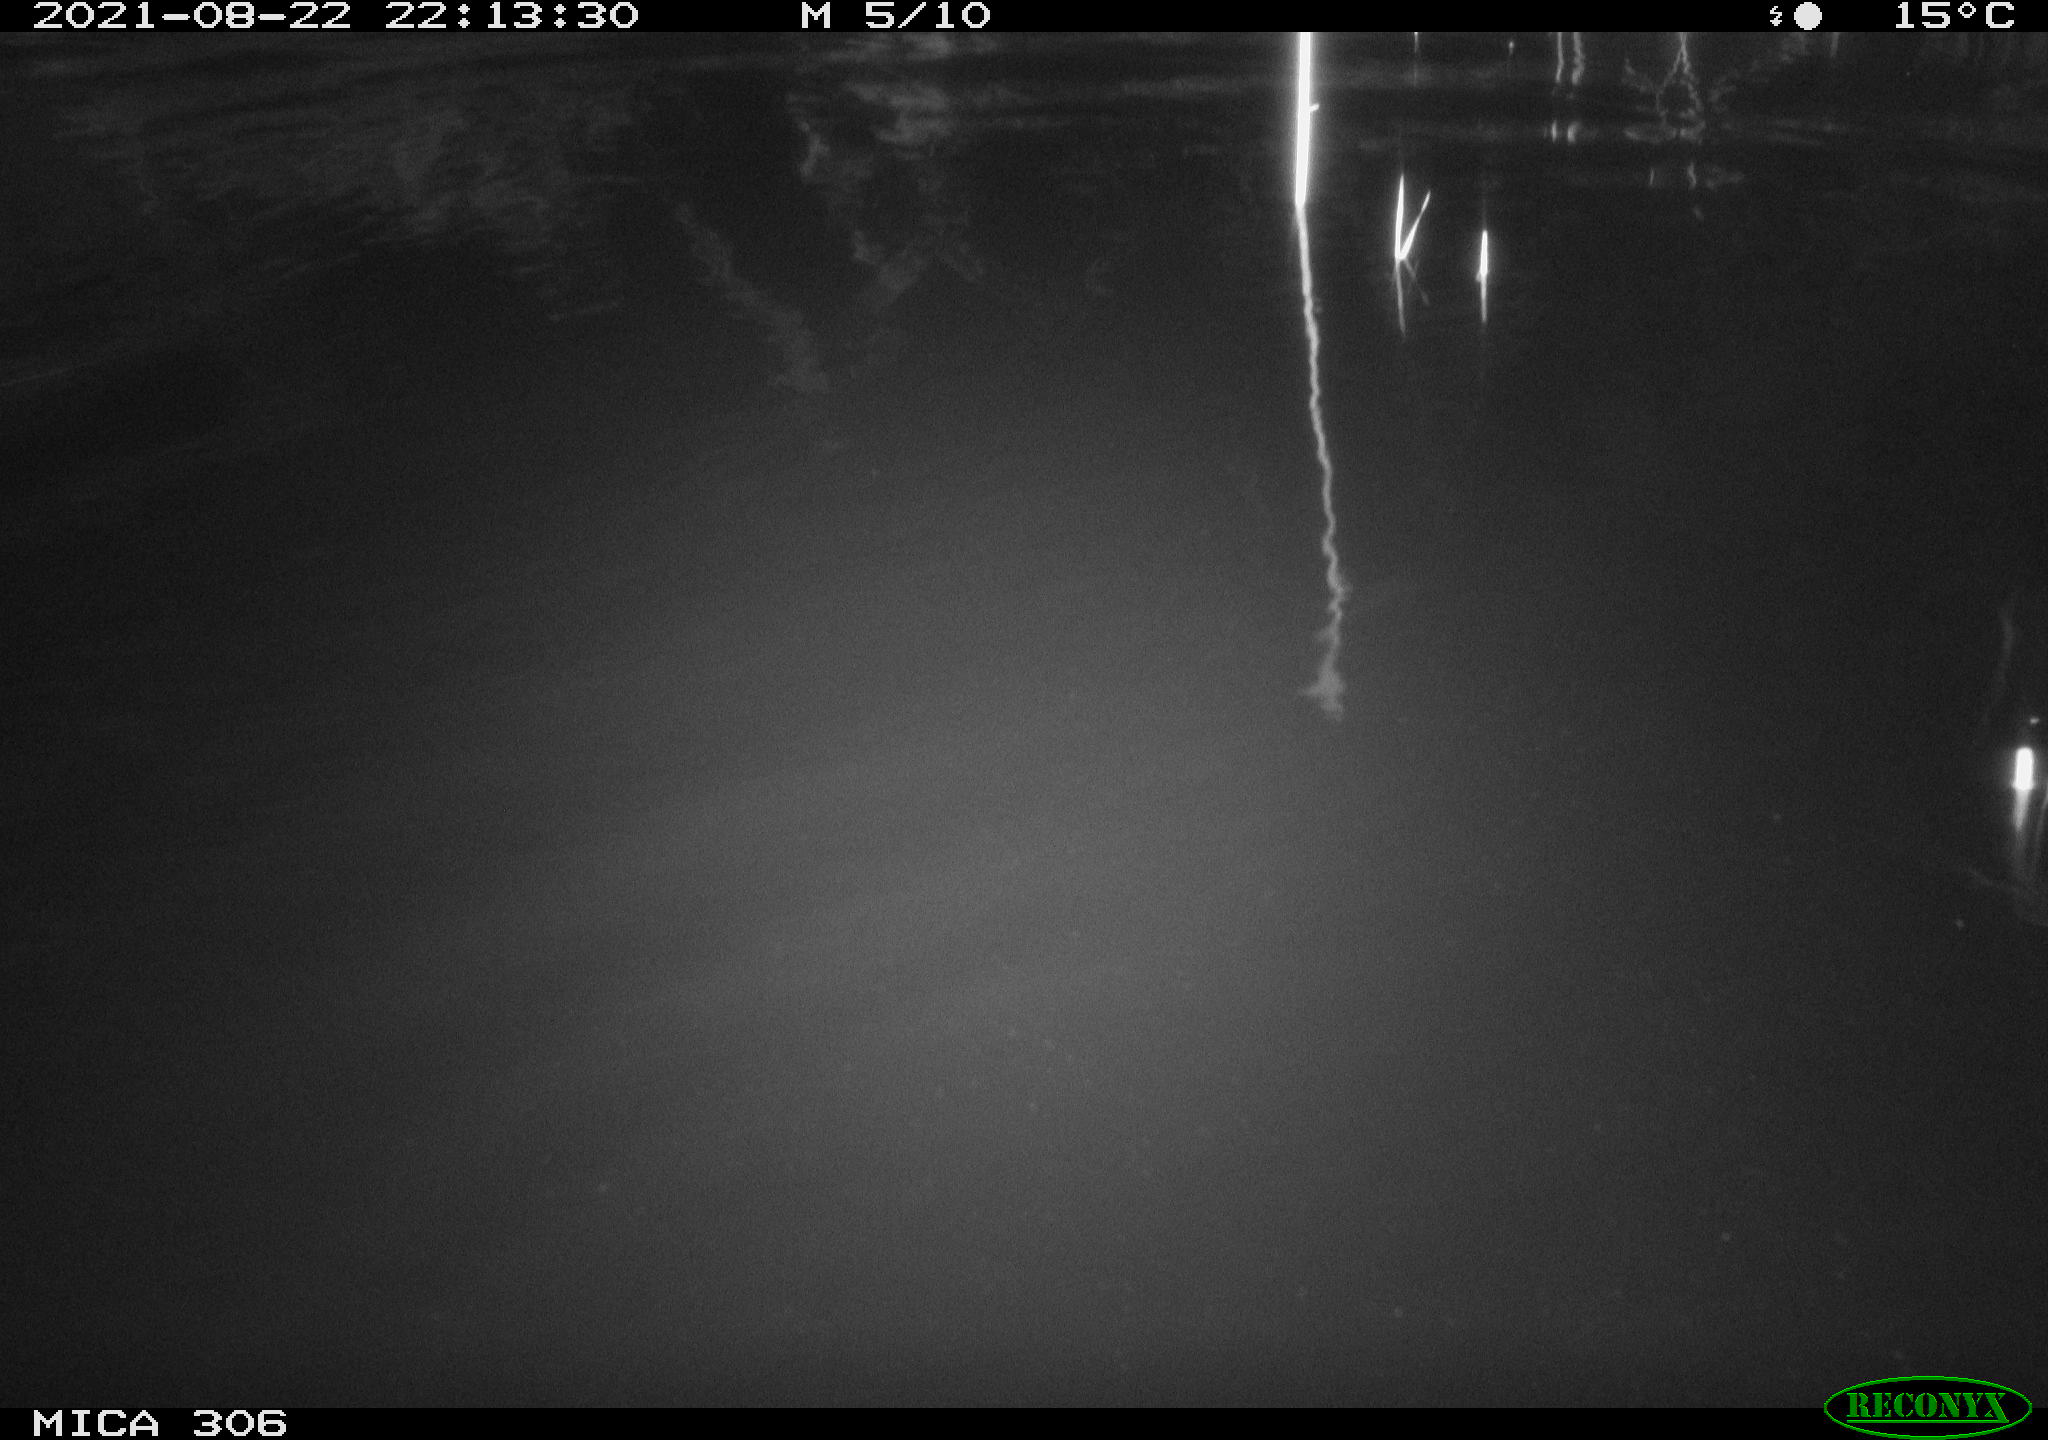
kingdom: Animalia
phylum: Chordata
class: Mammalia
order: Rodentia
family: Muridae
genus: Rattus
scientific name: Rattus norvegicus
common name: Brown rat
